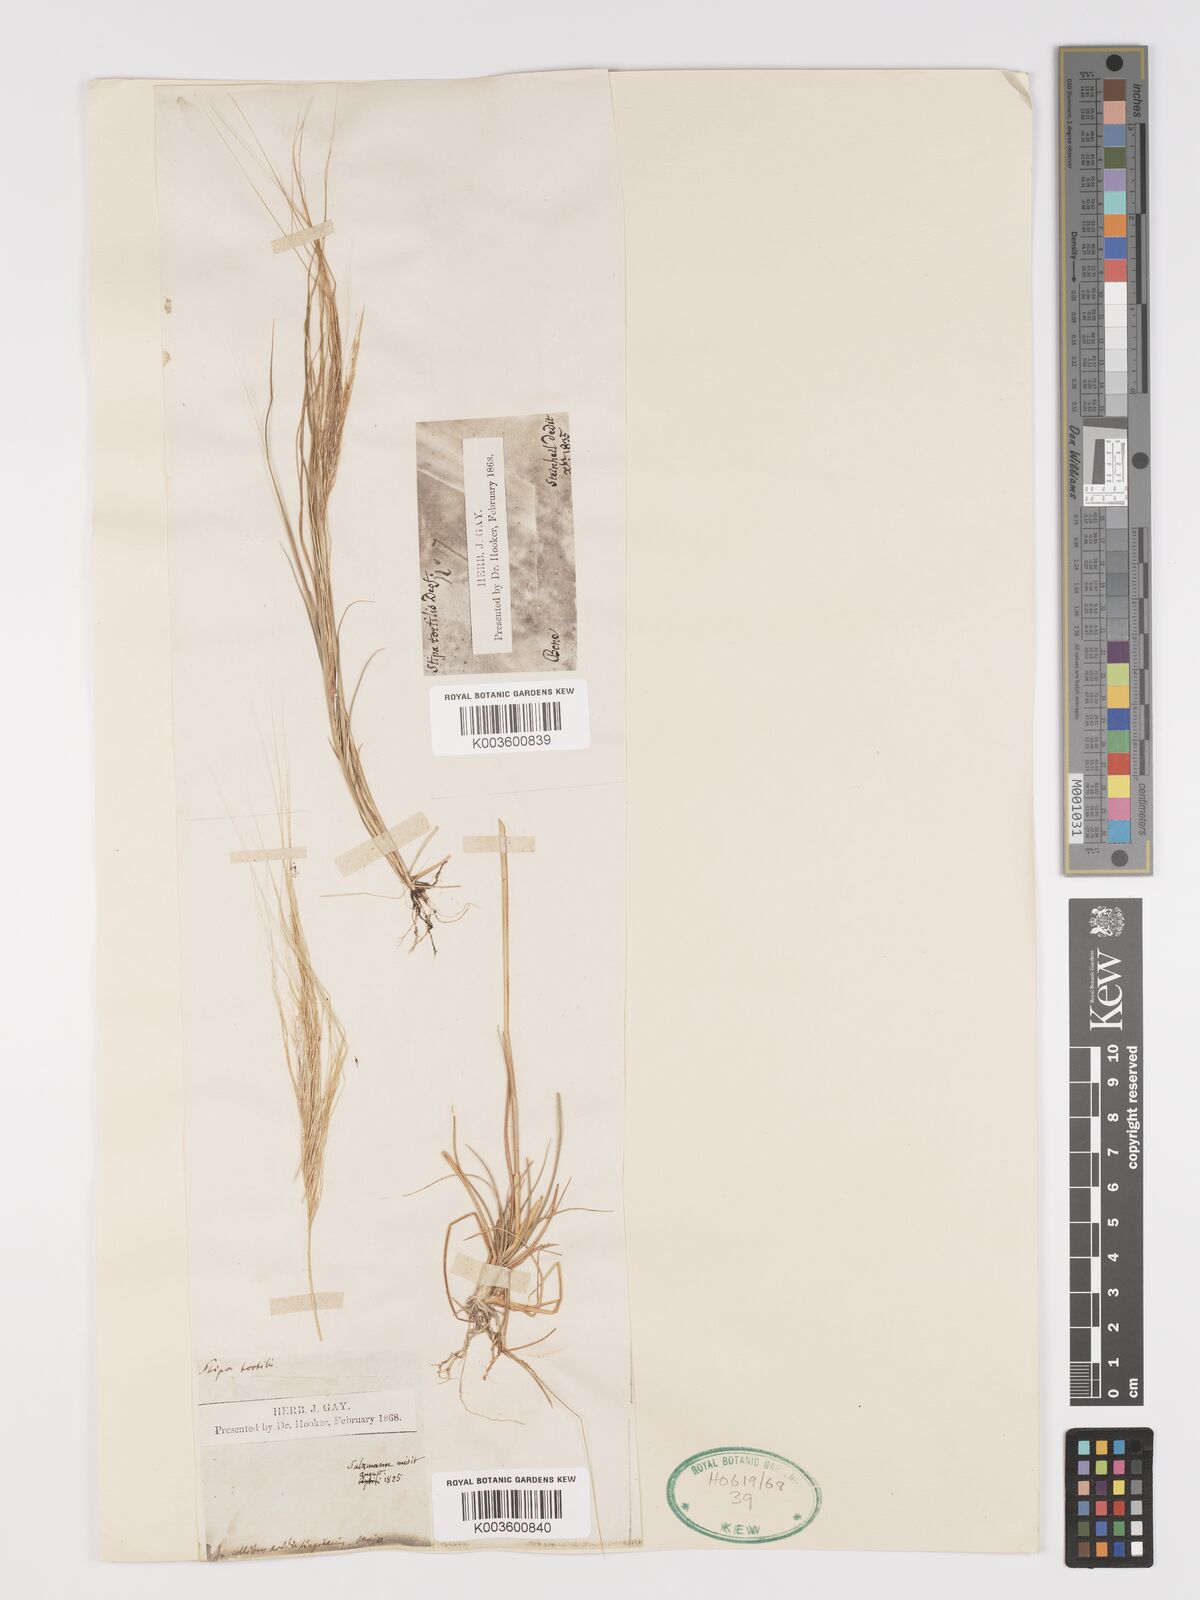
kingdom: Plantae
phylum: Tracheophyta
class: Liliopsida
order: Poales
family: Poaceae
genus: Stipellula
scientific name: Stipellula capensis
